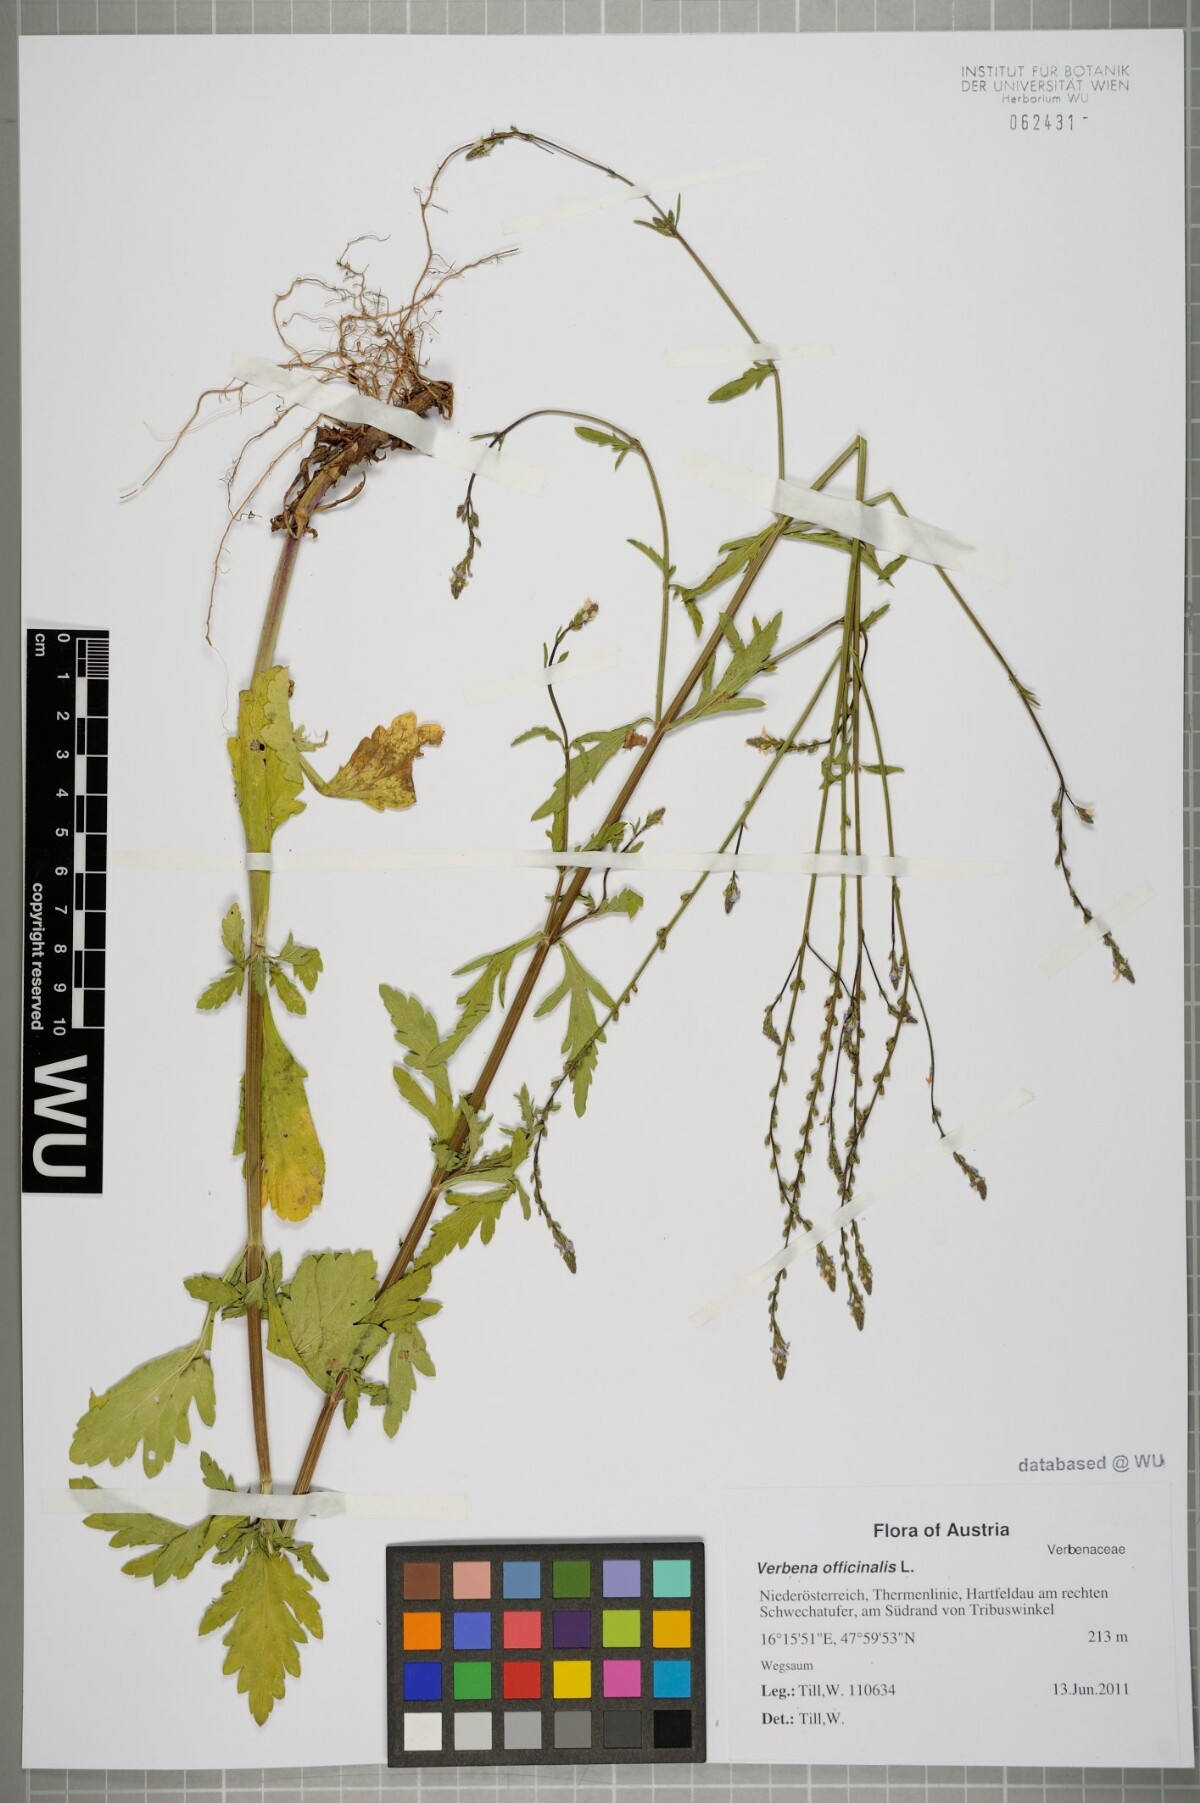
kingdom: Plantae
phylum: Tracheophyta
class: Magnoliopsida
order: Lamiales
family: Verbenaceae
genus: Verbena
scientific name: Verbena officinalis
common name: Vervain
